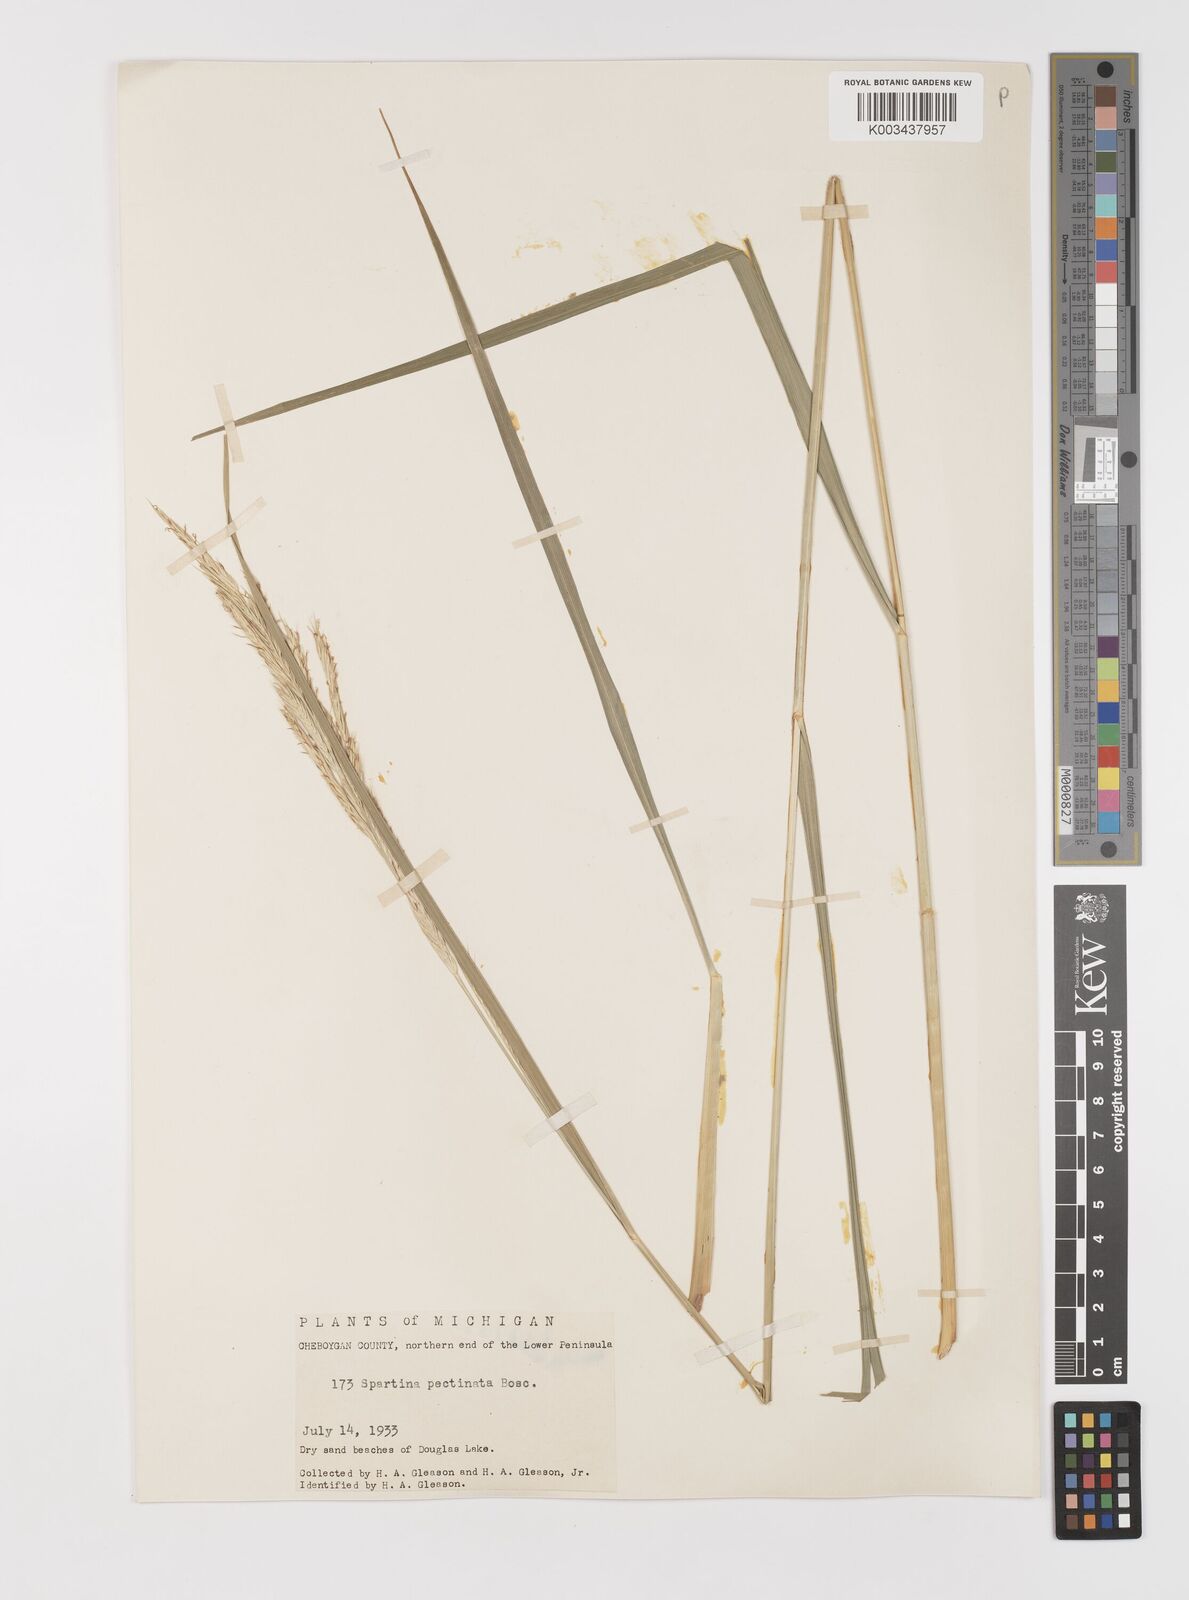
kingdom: Plantae
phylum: Tracheophyta
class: Liliopsida
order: Poales
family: Poaceae
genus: Sporobolus
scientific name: Sporobolus michauxianus
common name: Freshwater cordgrass
